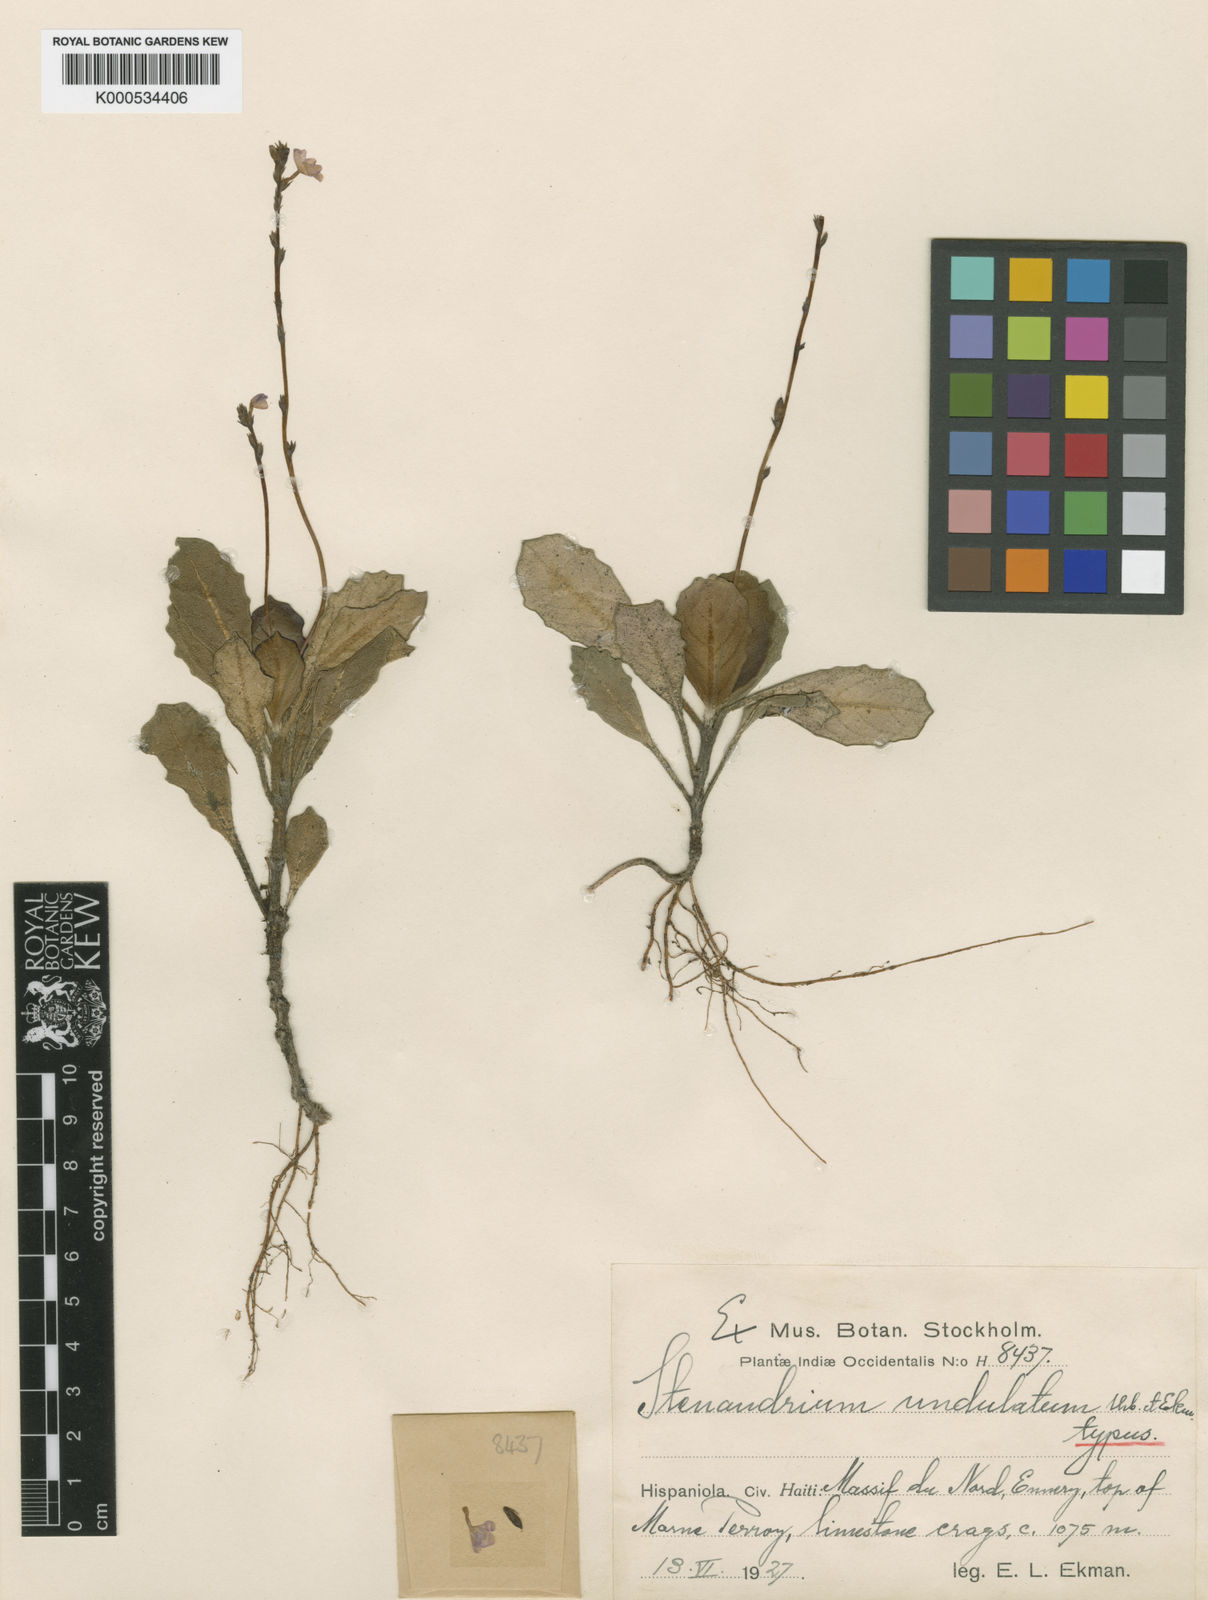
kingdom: Plantae
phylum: Tracheophyta
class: Magnoliopsida
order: Lamiales
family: Acanthaceae
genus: Stenandrium
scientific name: Stenandrium undulatum
